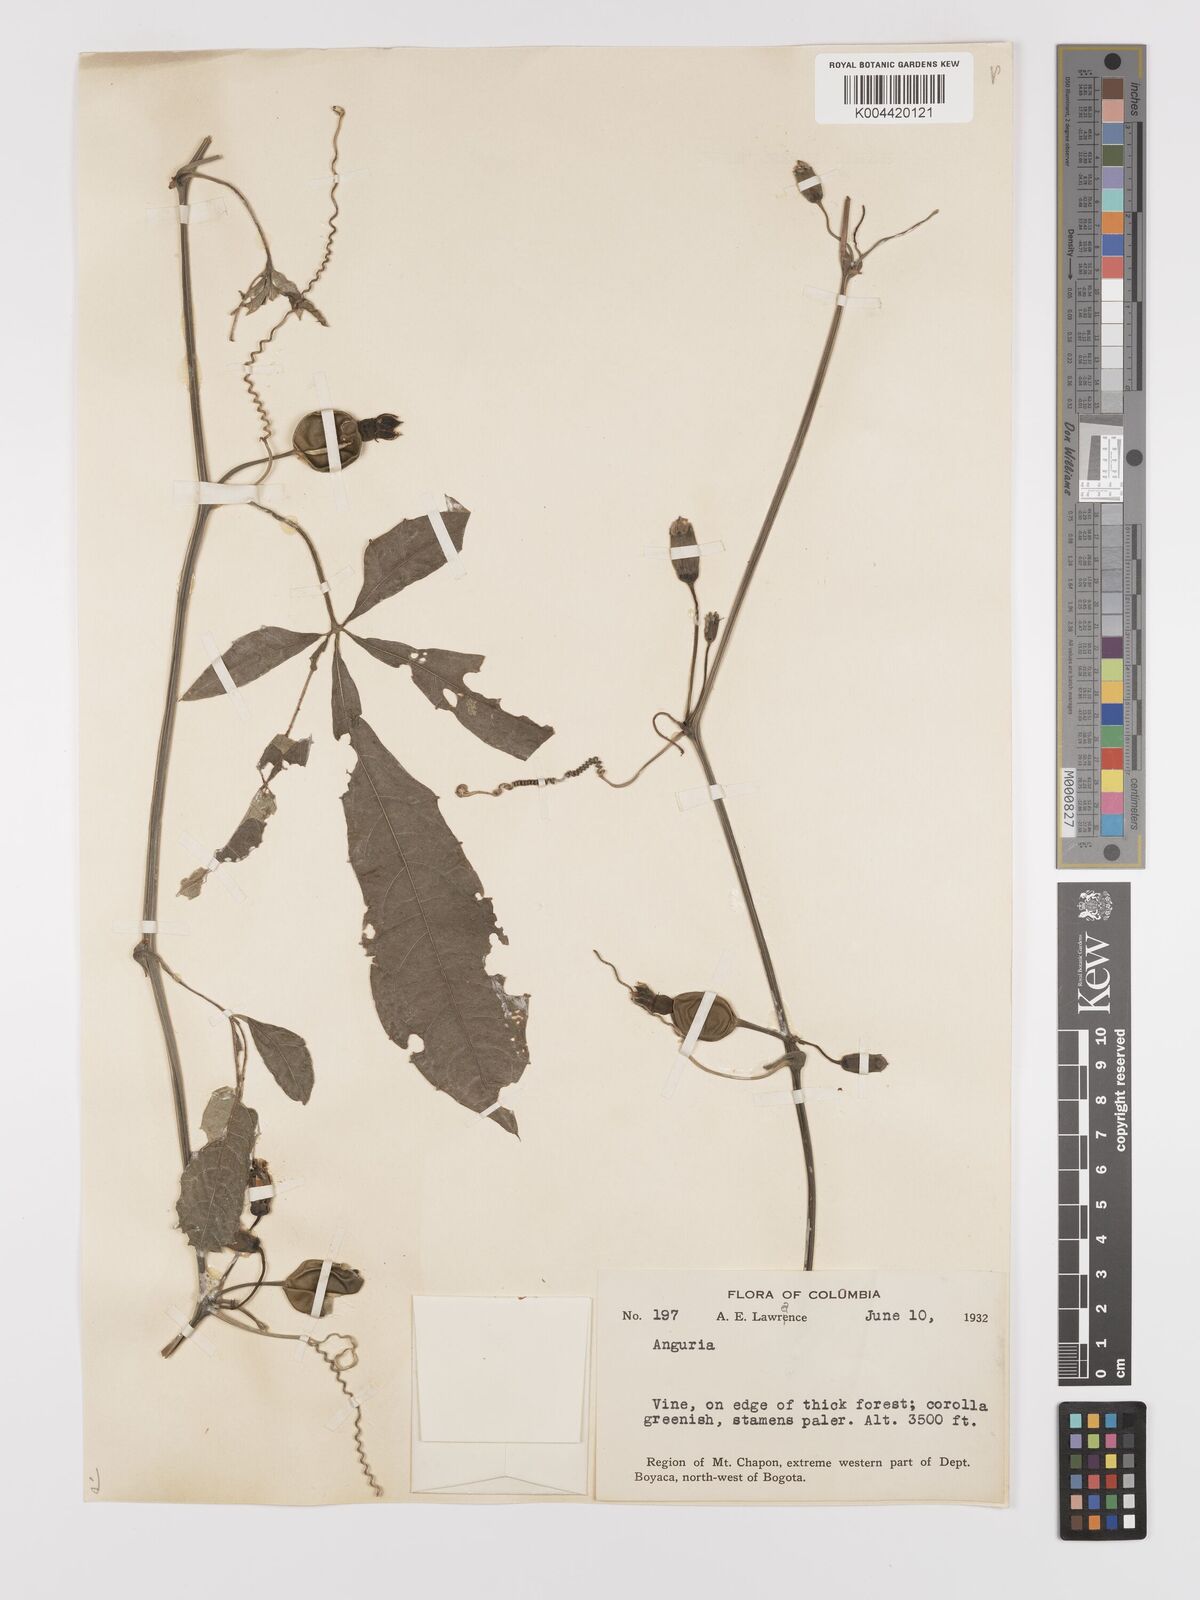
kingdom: Plantae
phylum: Tracheophyta
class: Magnoliopsida
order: Cucurbitales
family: Cucurbitaceae
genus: Cayaponia
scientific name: Cayaponia tubulosa
